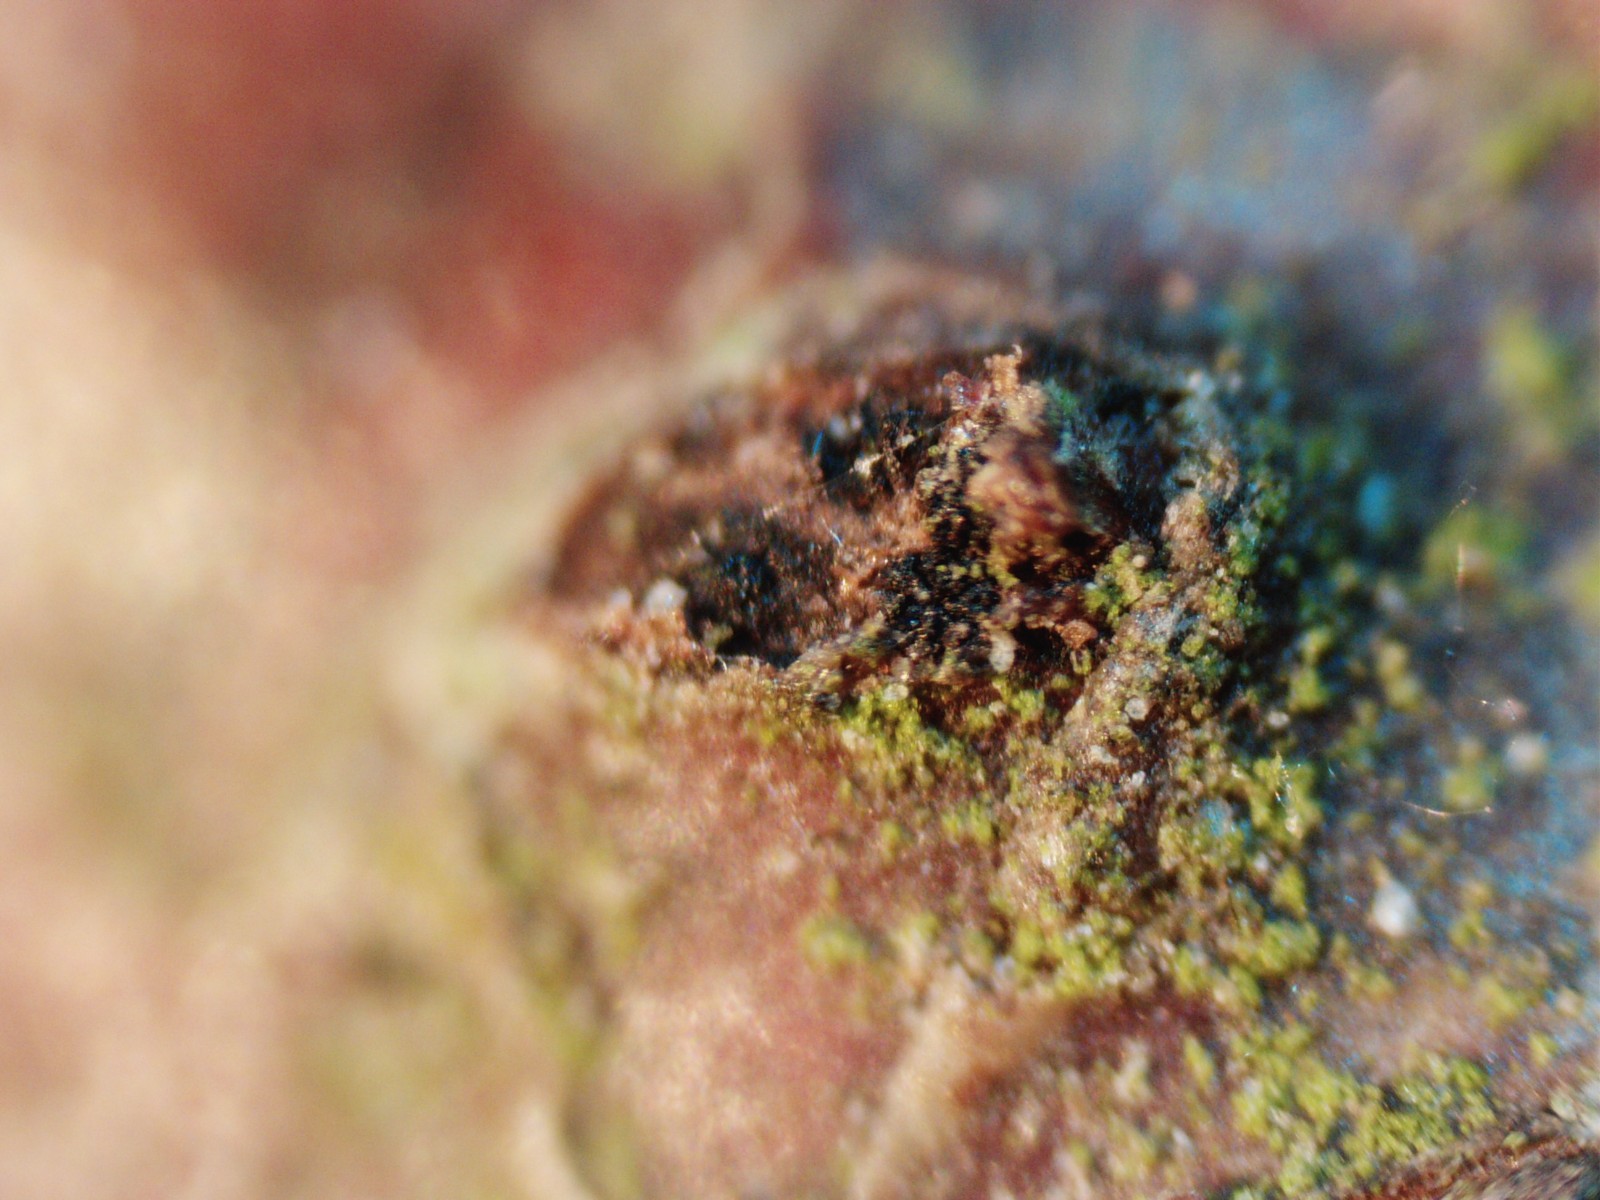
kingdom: Fungi
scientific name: Fungi
